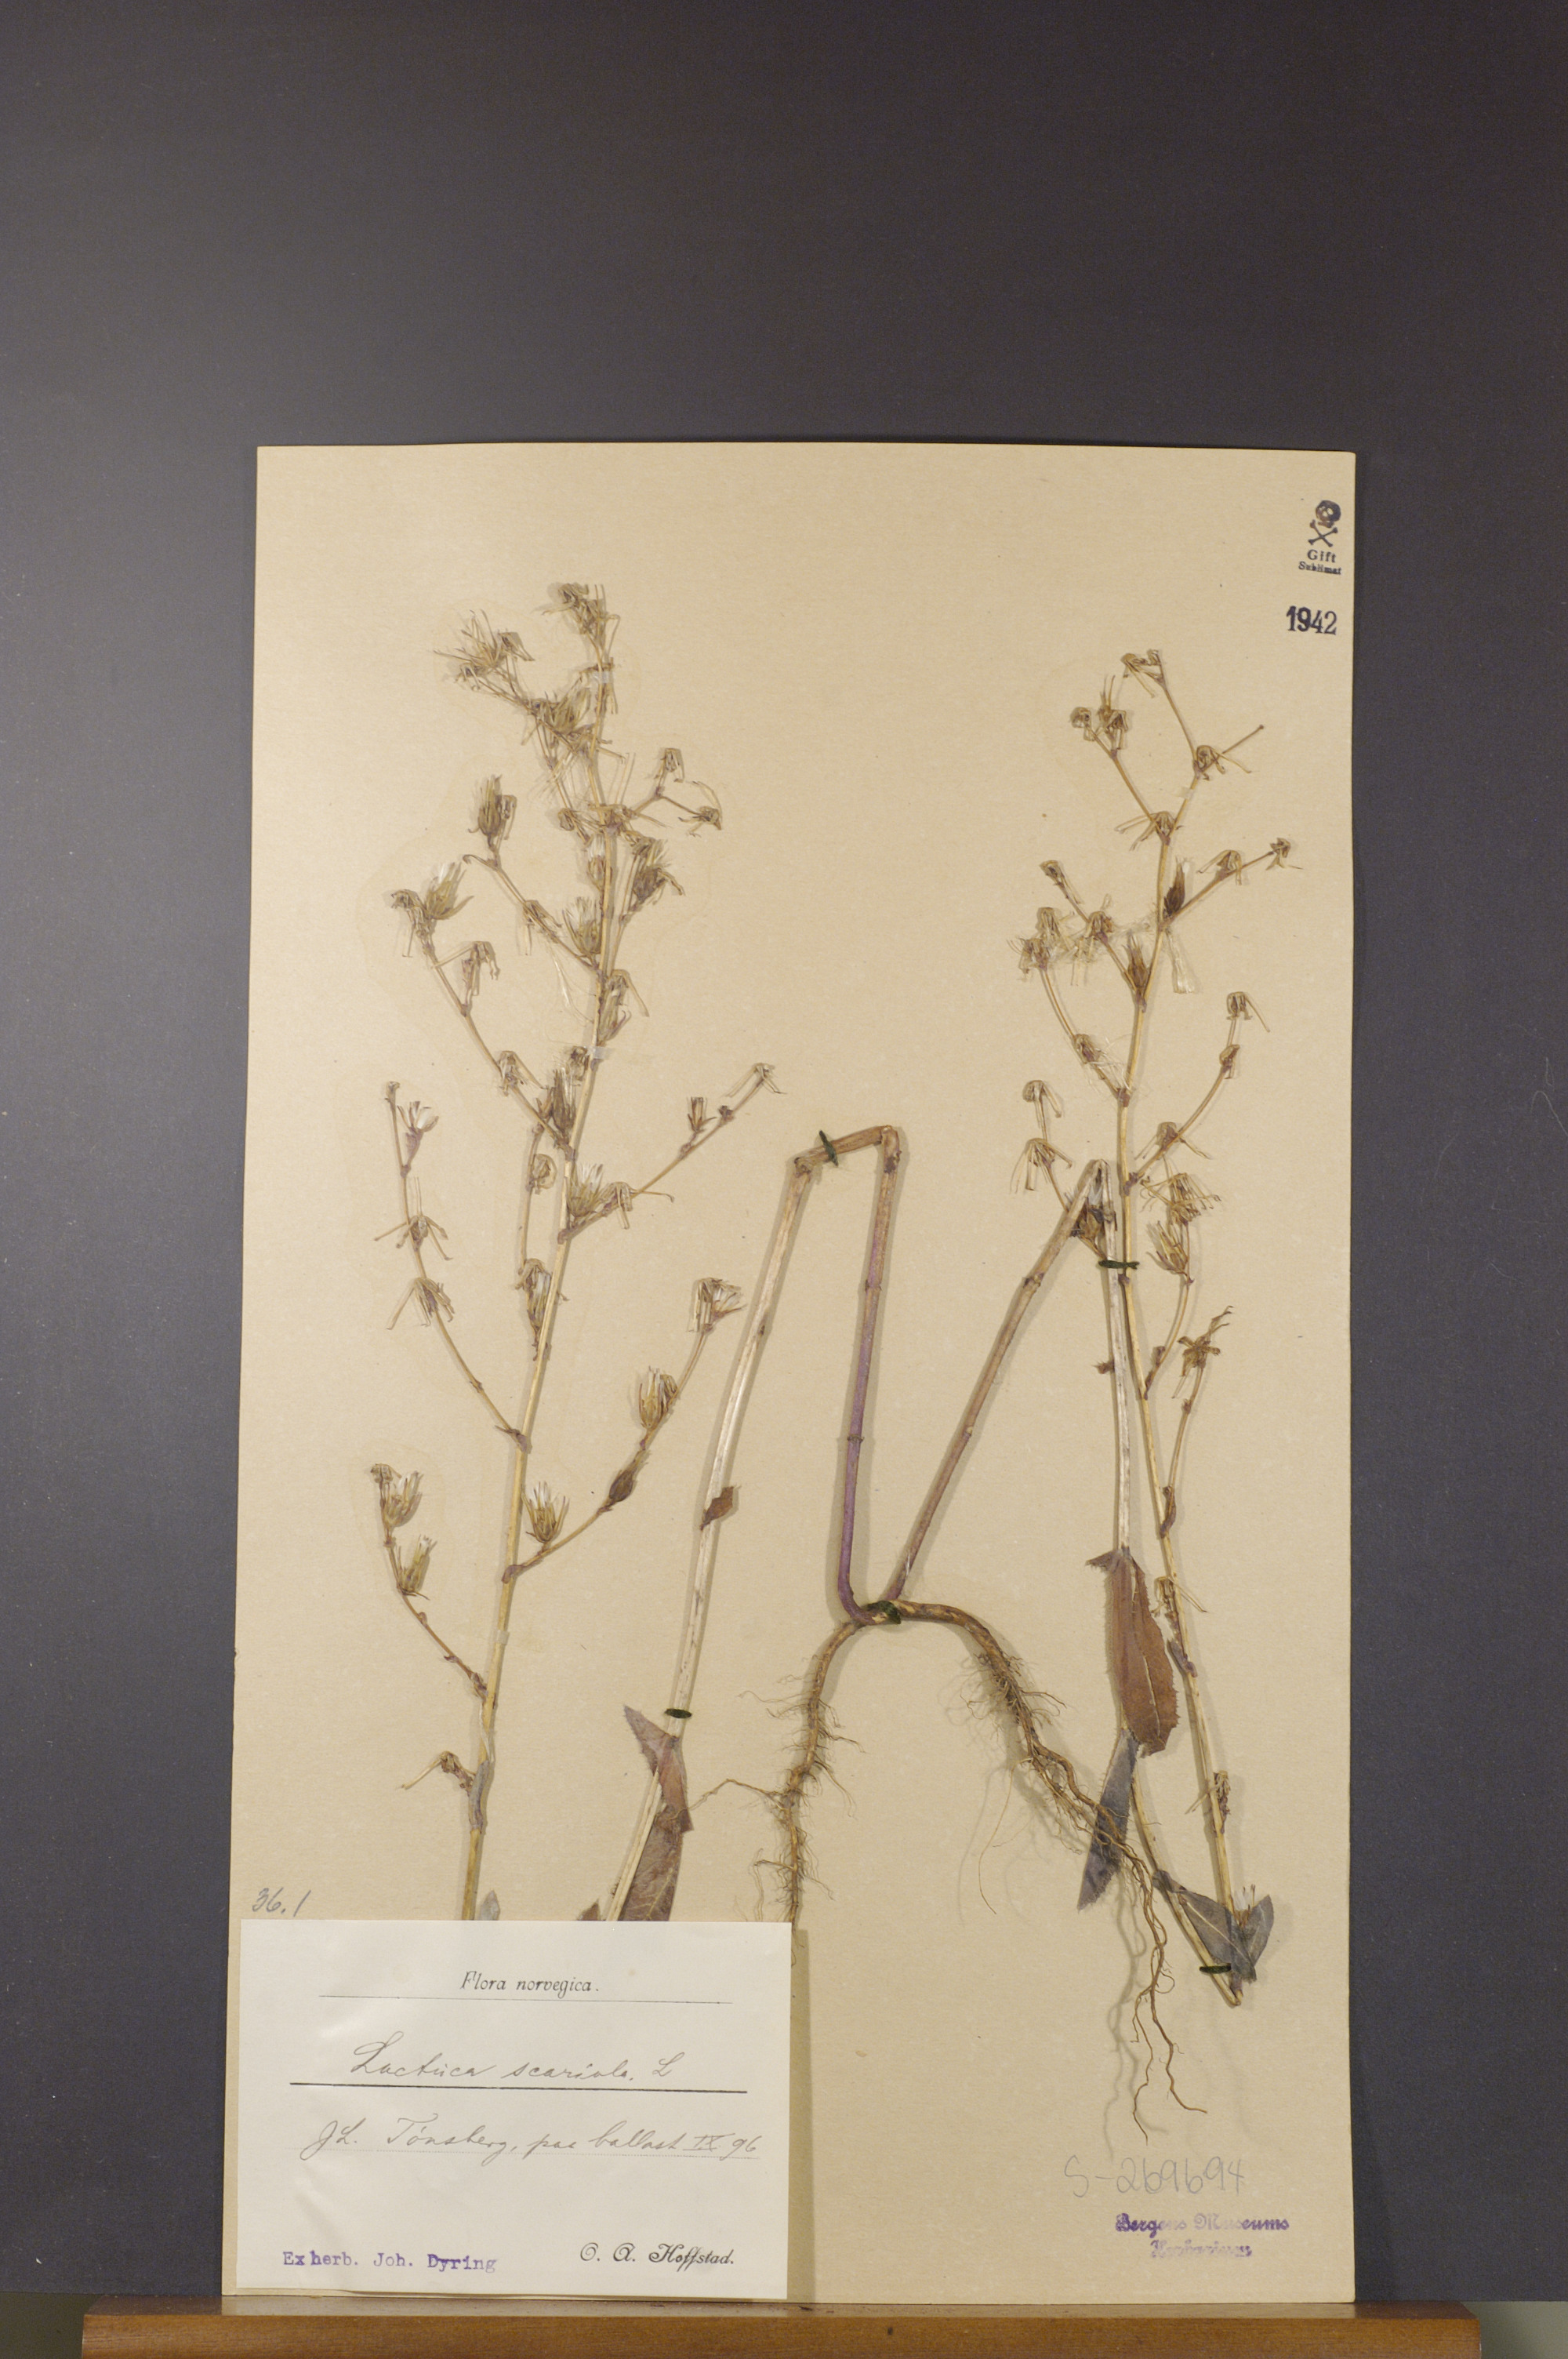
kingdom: Plantae
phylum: Tracheophyta
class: Magnoliopsida
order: Asterales
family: Asteraceae
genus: Lactuca
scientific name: Lactuca serriola
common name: Prickly lettuce
